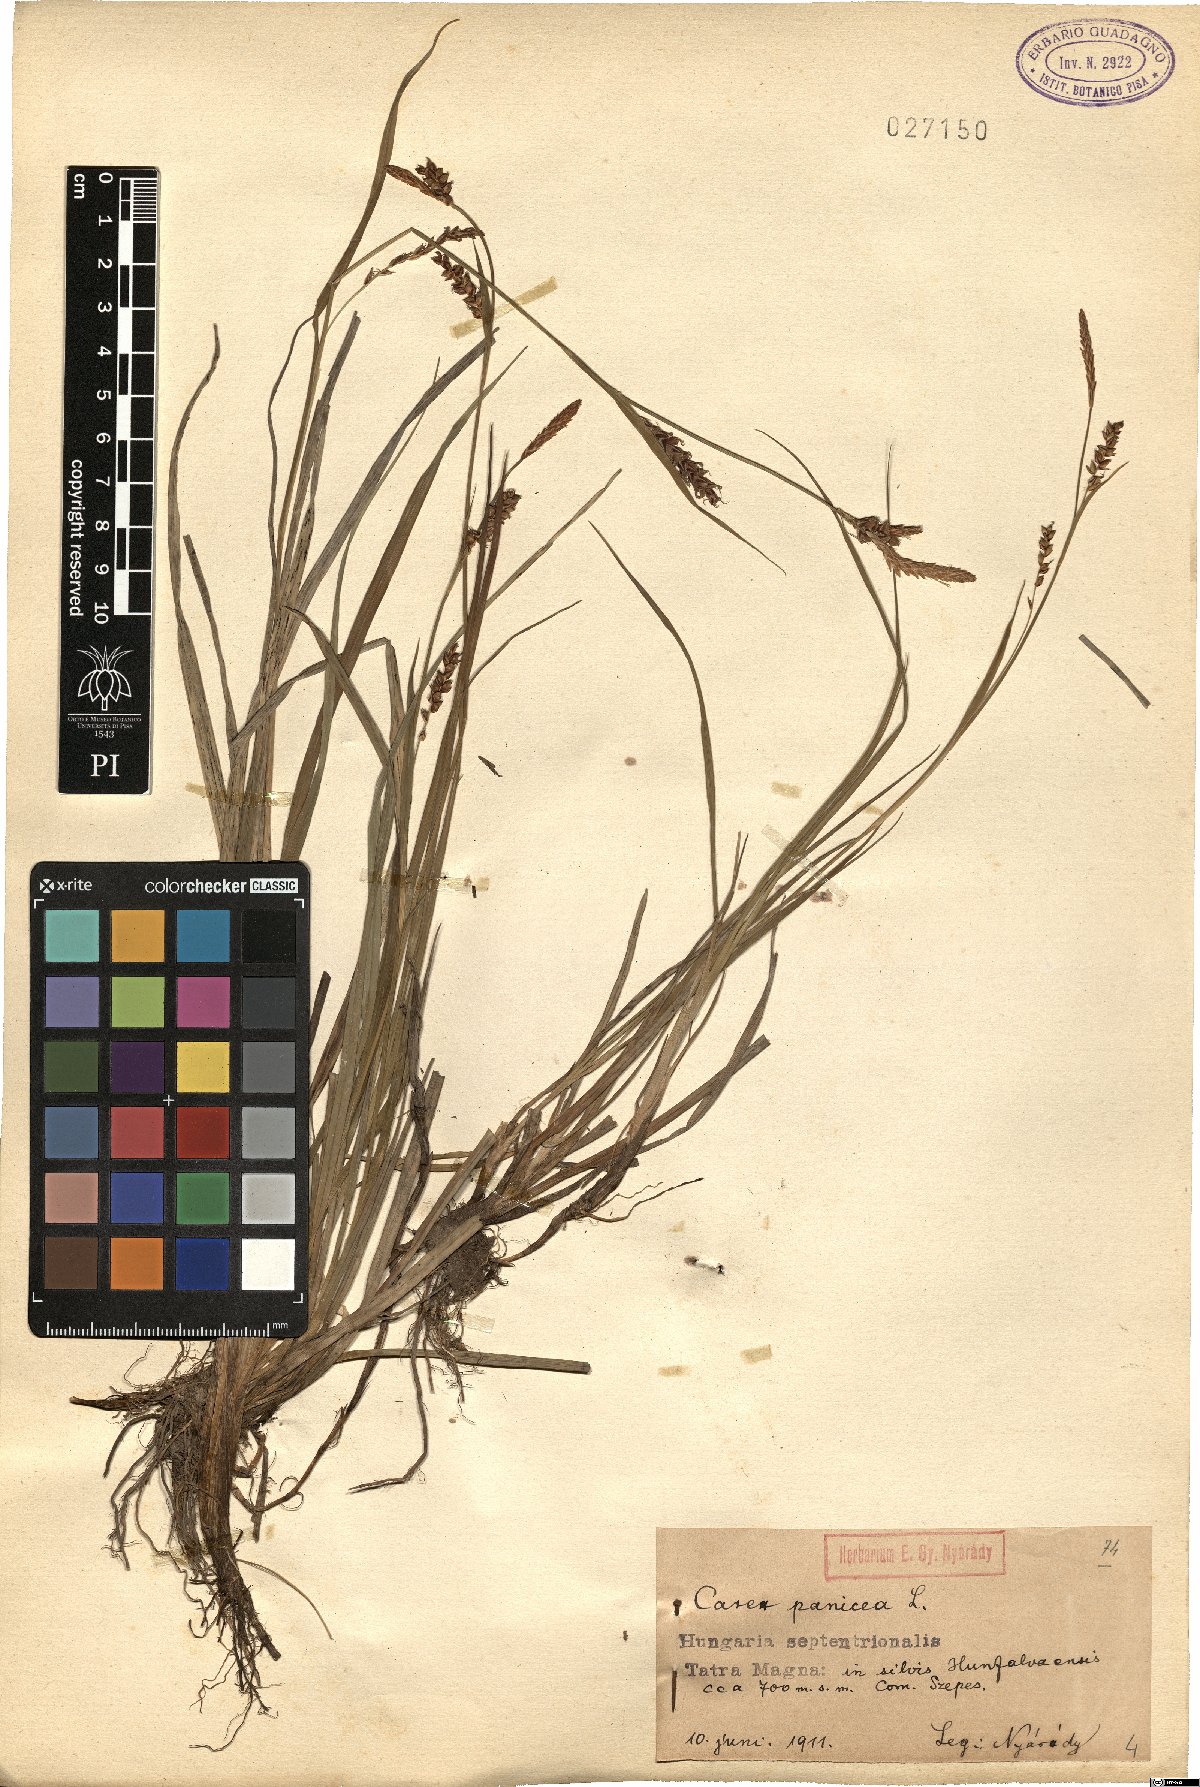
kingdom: Plantae
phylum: Tracheophyta
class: Liliopsida
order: Poales
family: Cyperaceae
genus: Carex
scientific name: Carex panicea
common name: Carnation sedge
